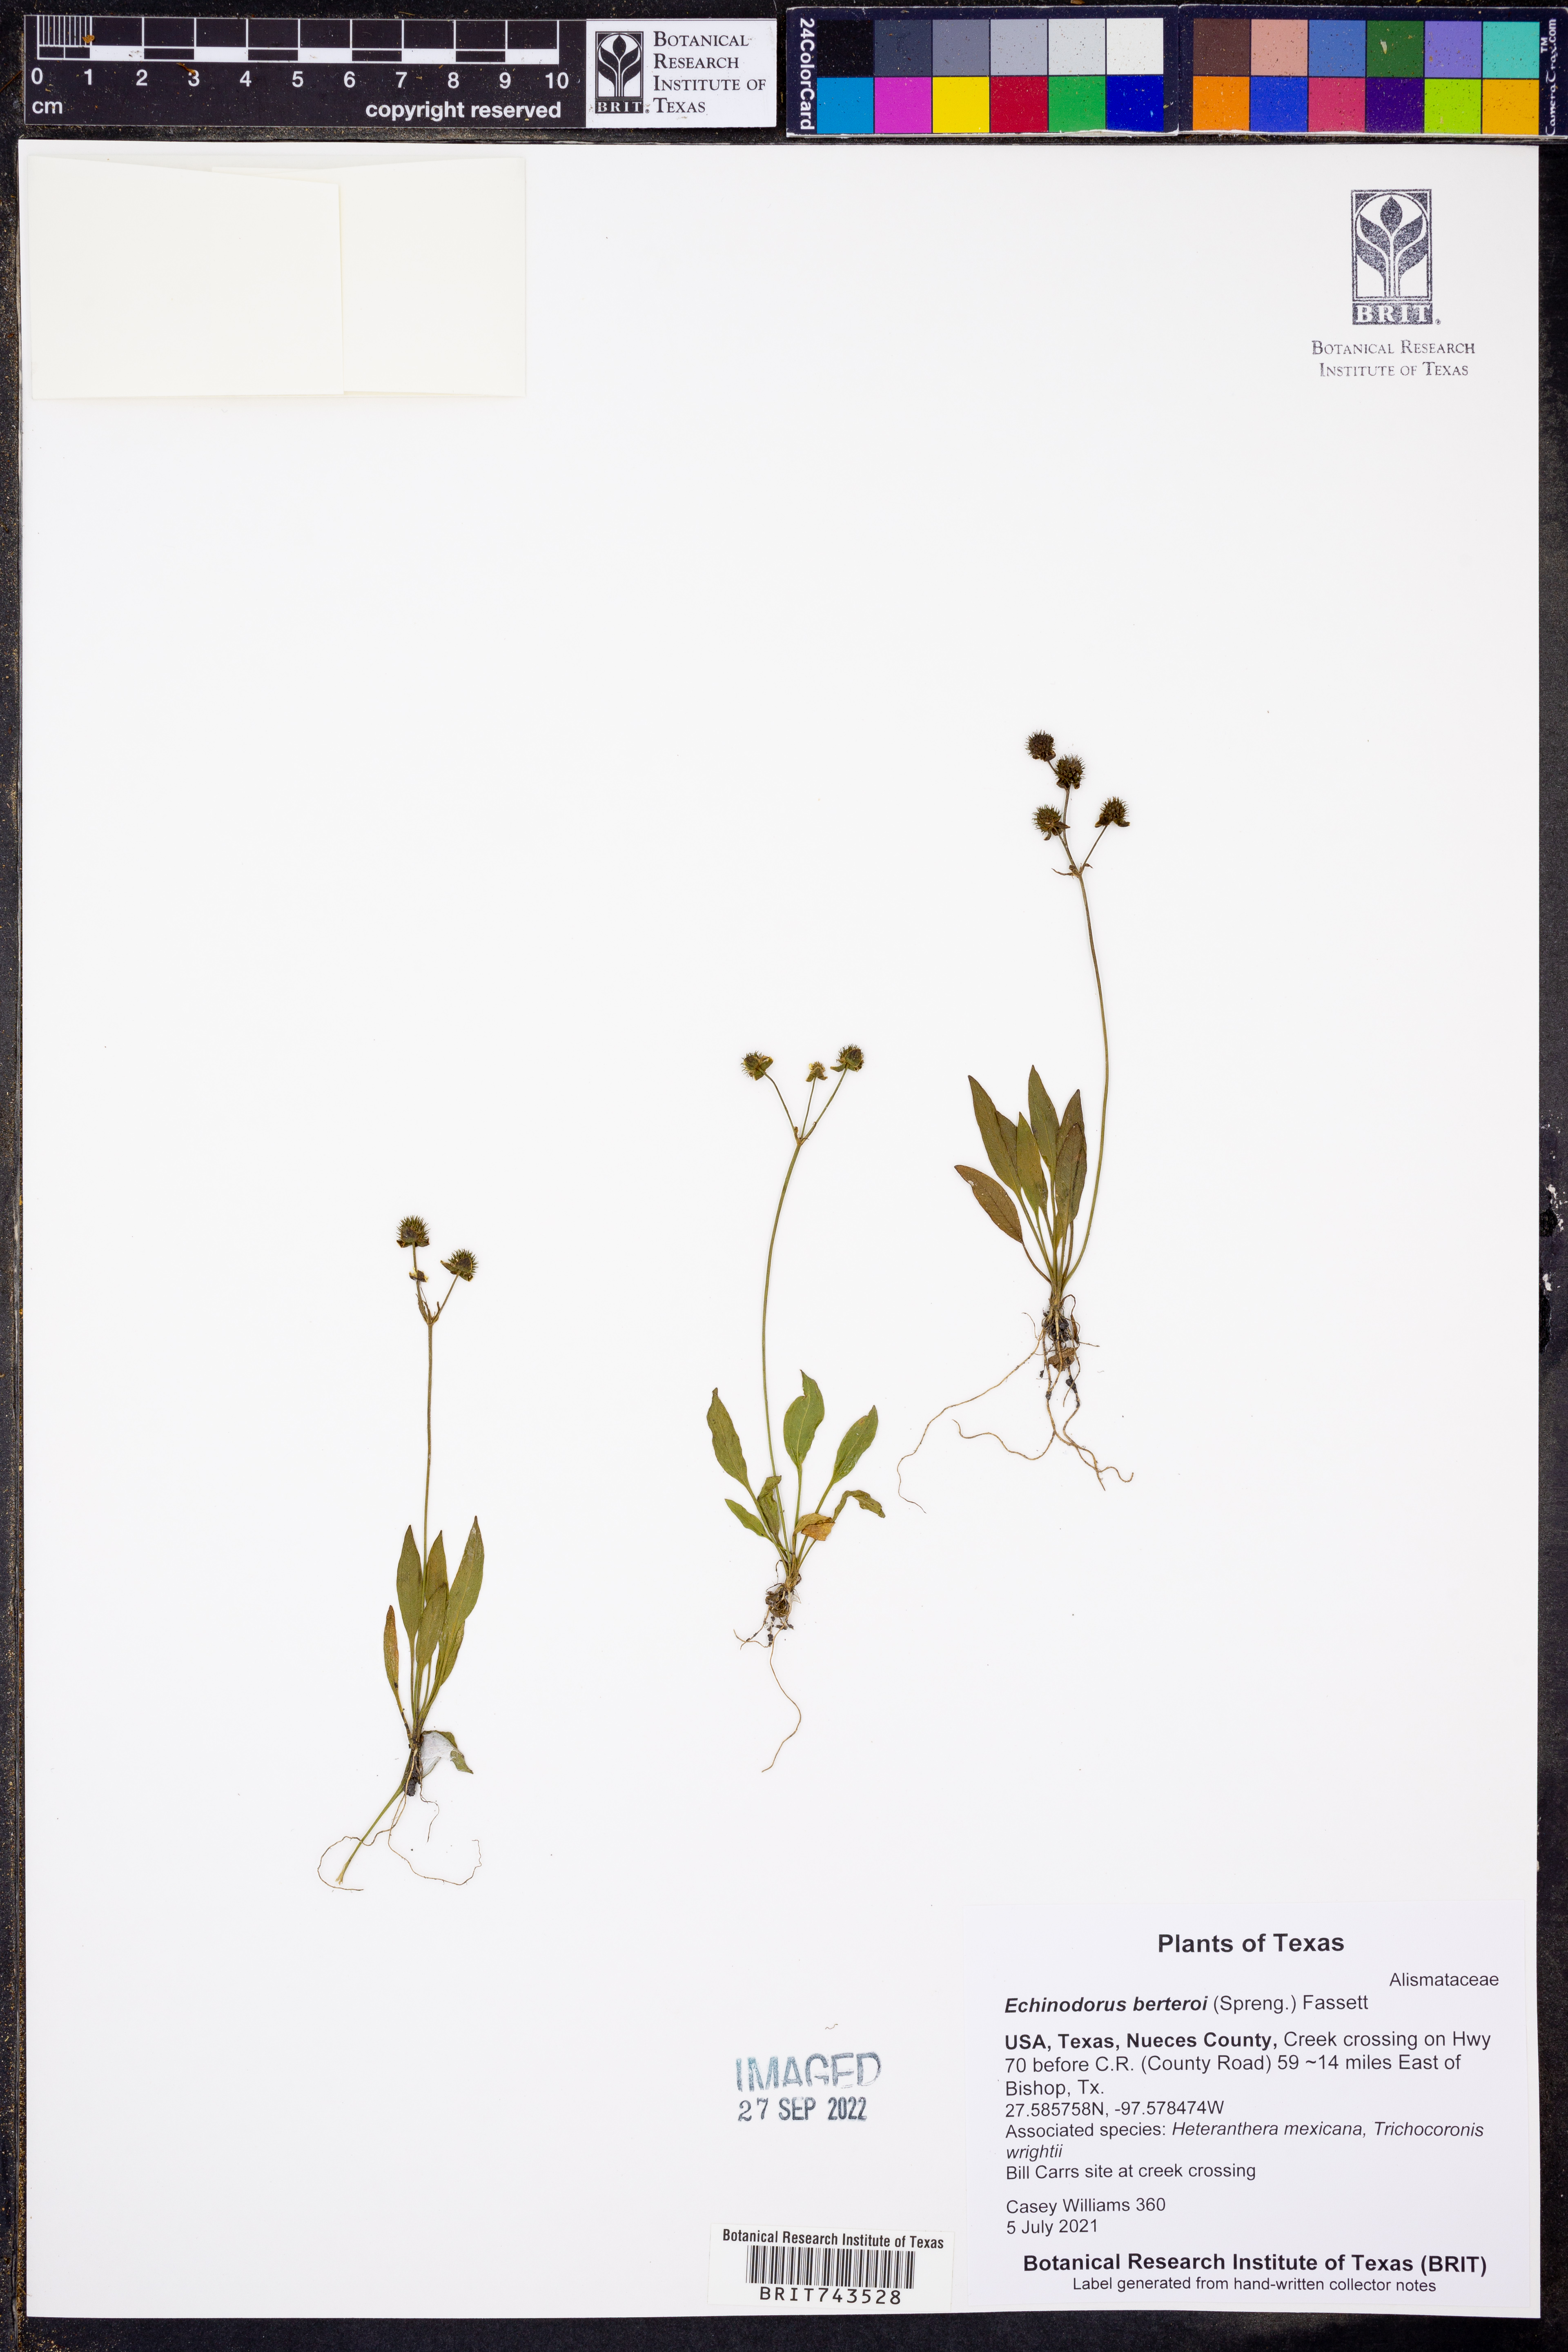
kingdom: Plantae
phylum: Tracheophyta
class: Liliopsida
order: Alismatales
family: Alismataceae
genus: Echinodorus
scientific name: Echinodorus berteroi
